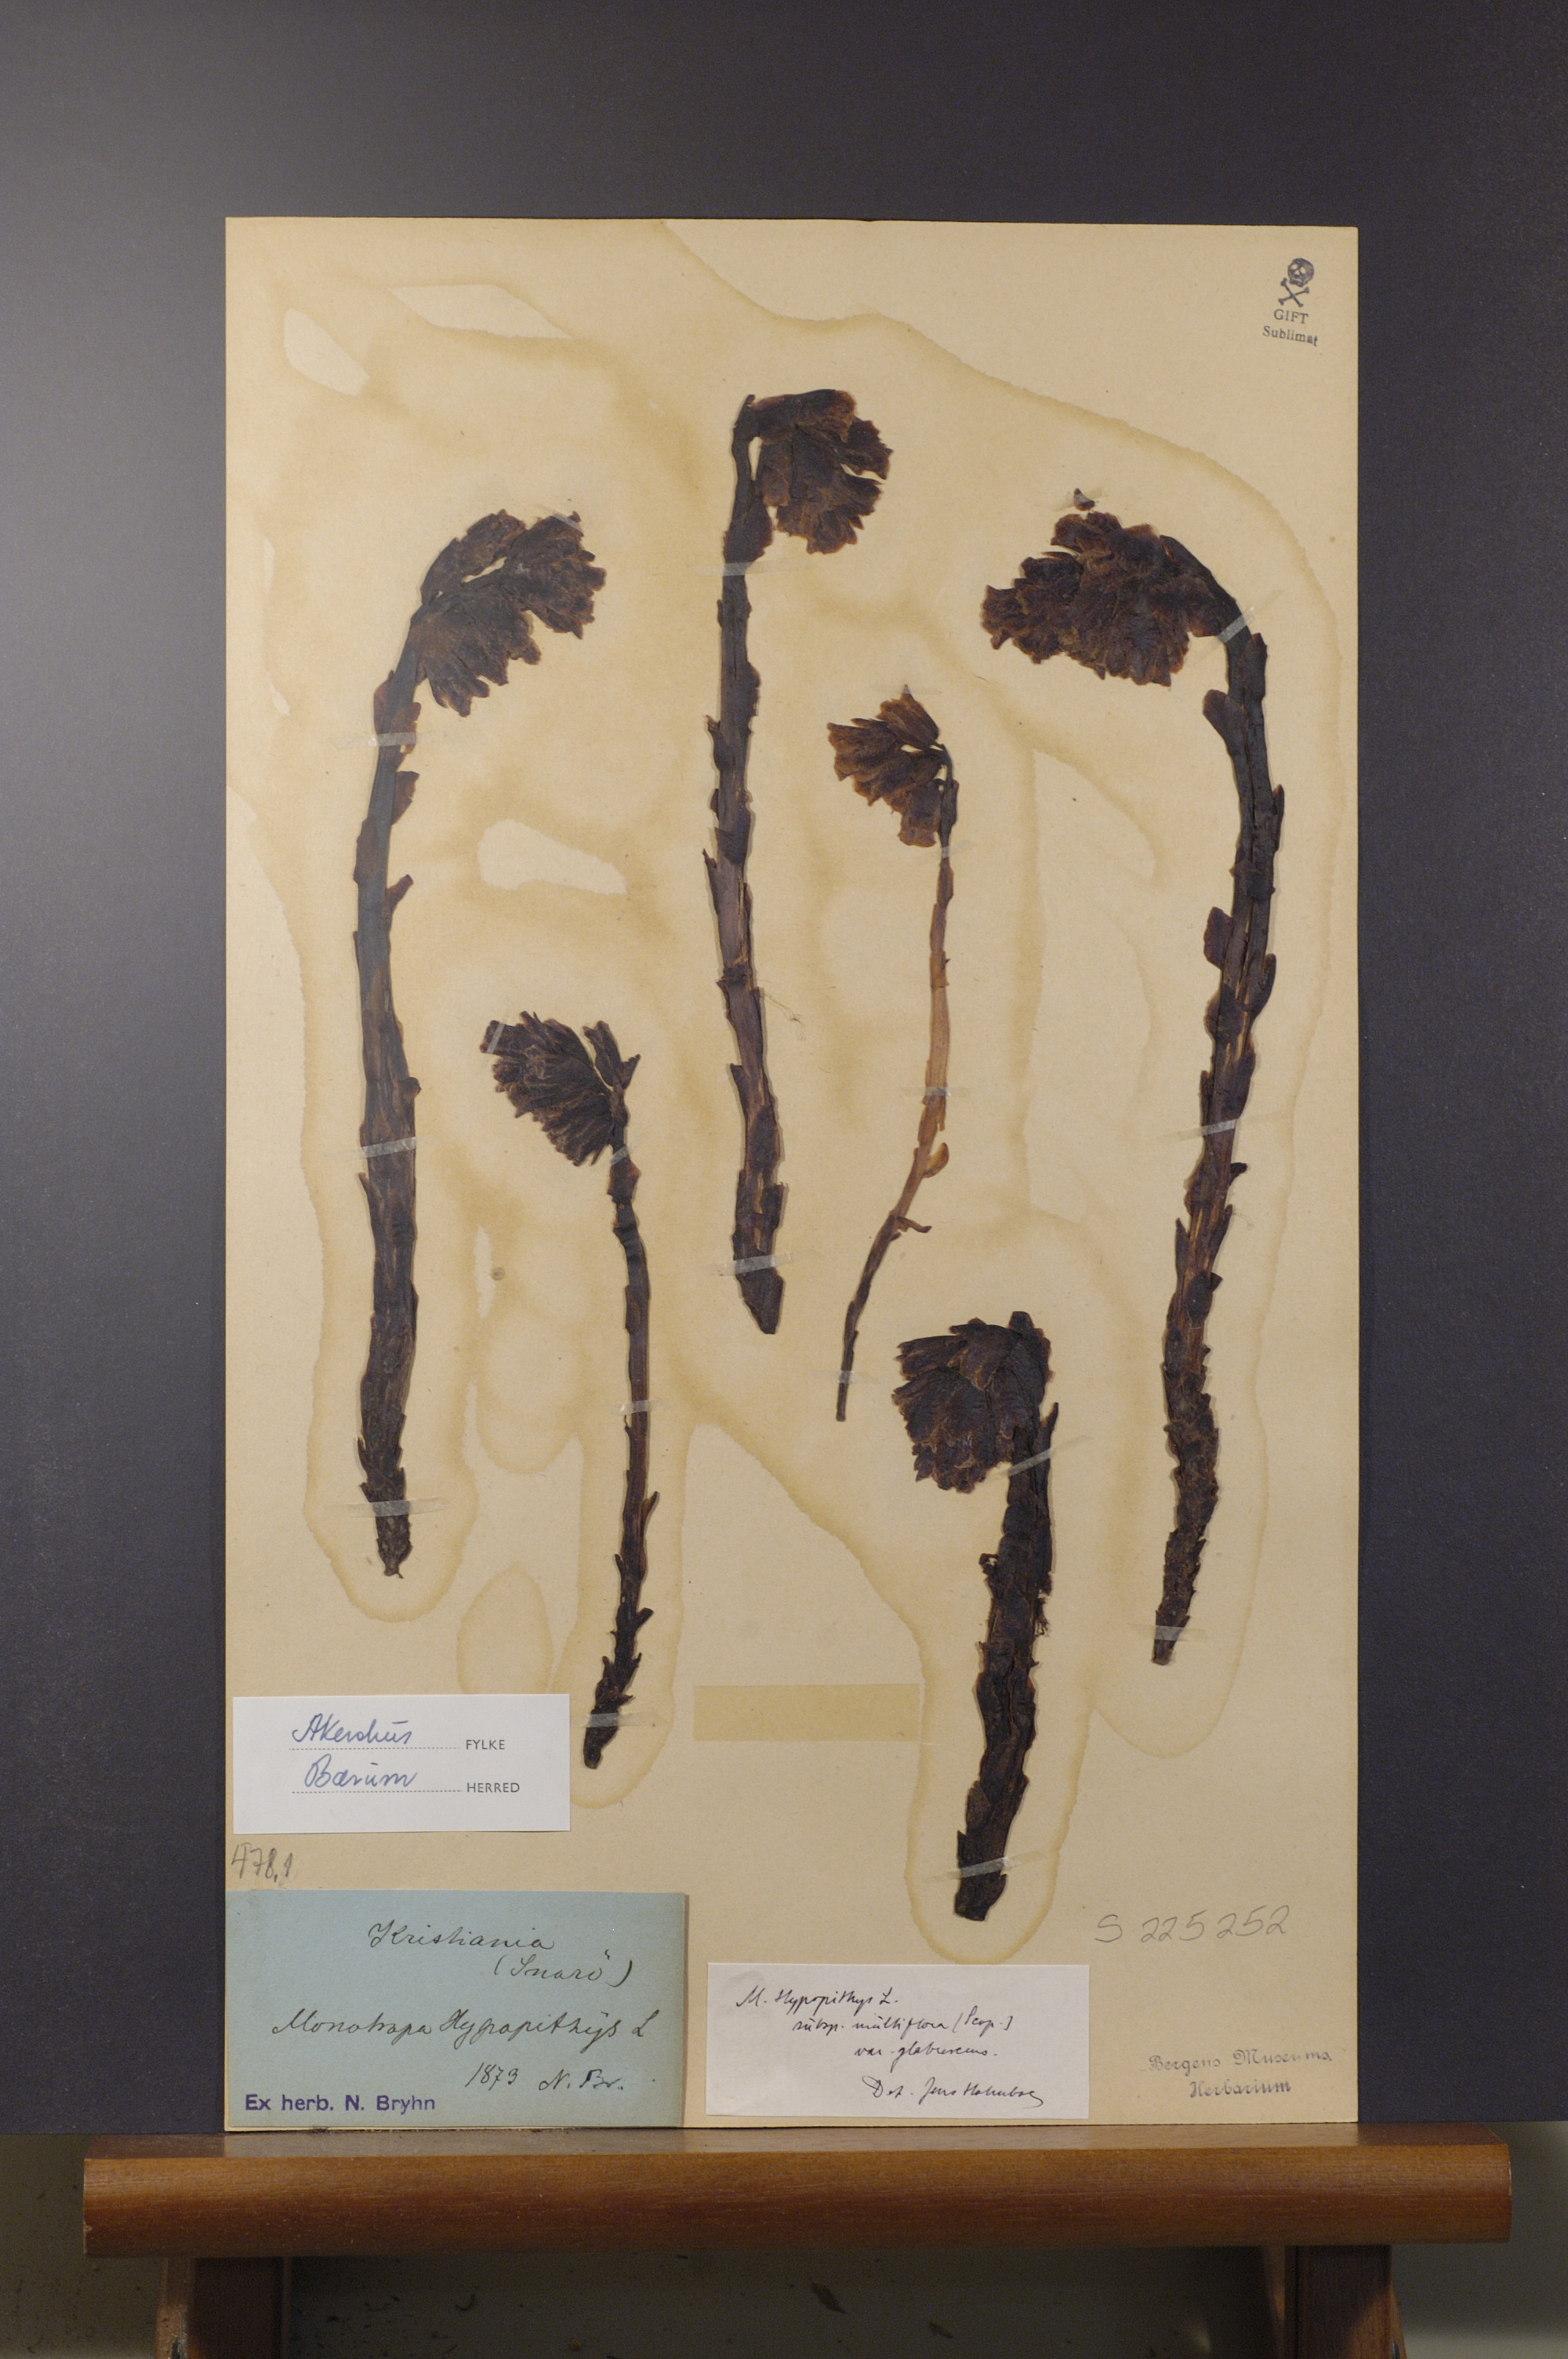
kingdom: Plantae
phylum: Tracheophyta
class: Magnoliopsida
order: Ericales
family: Ericaceae
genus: Hypopitys
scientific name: Hypopitys hypophegea
